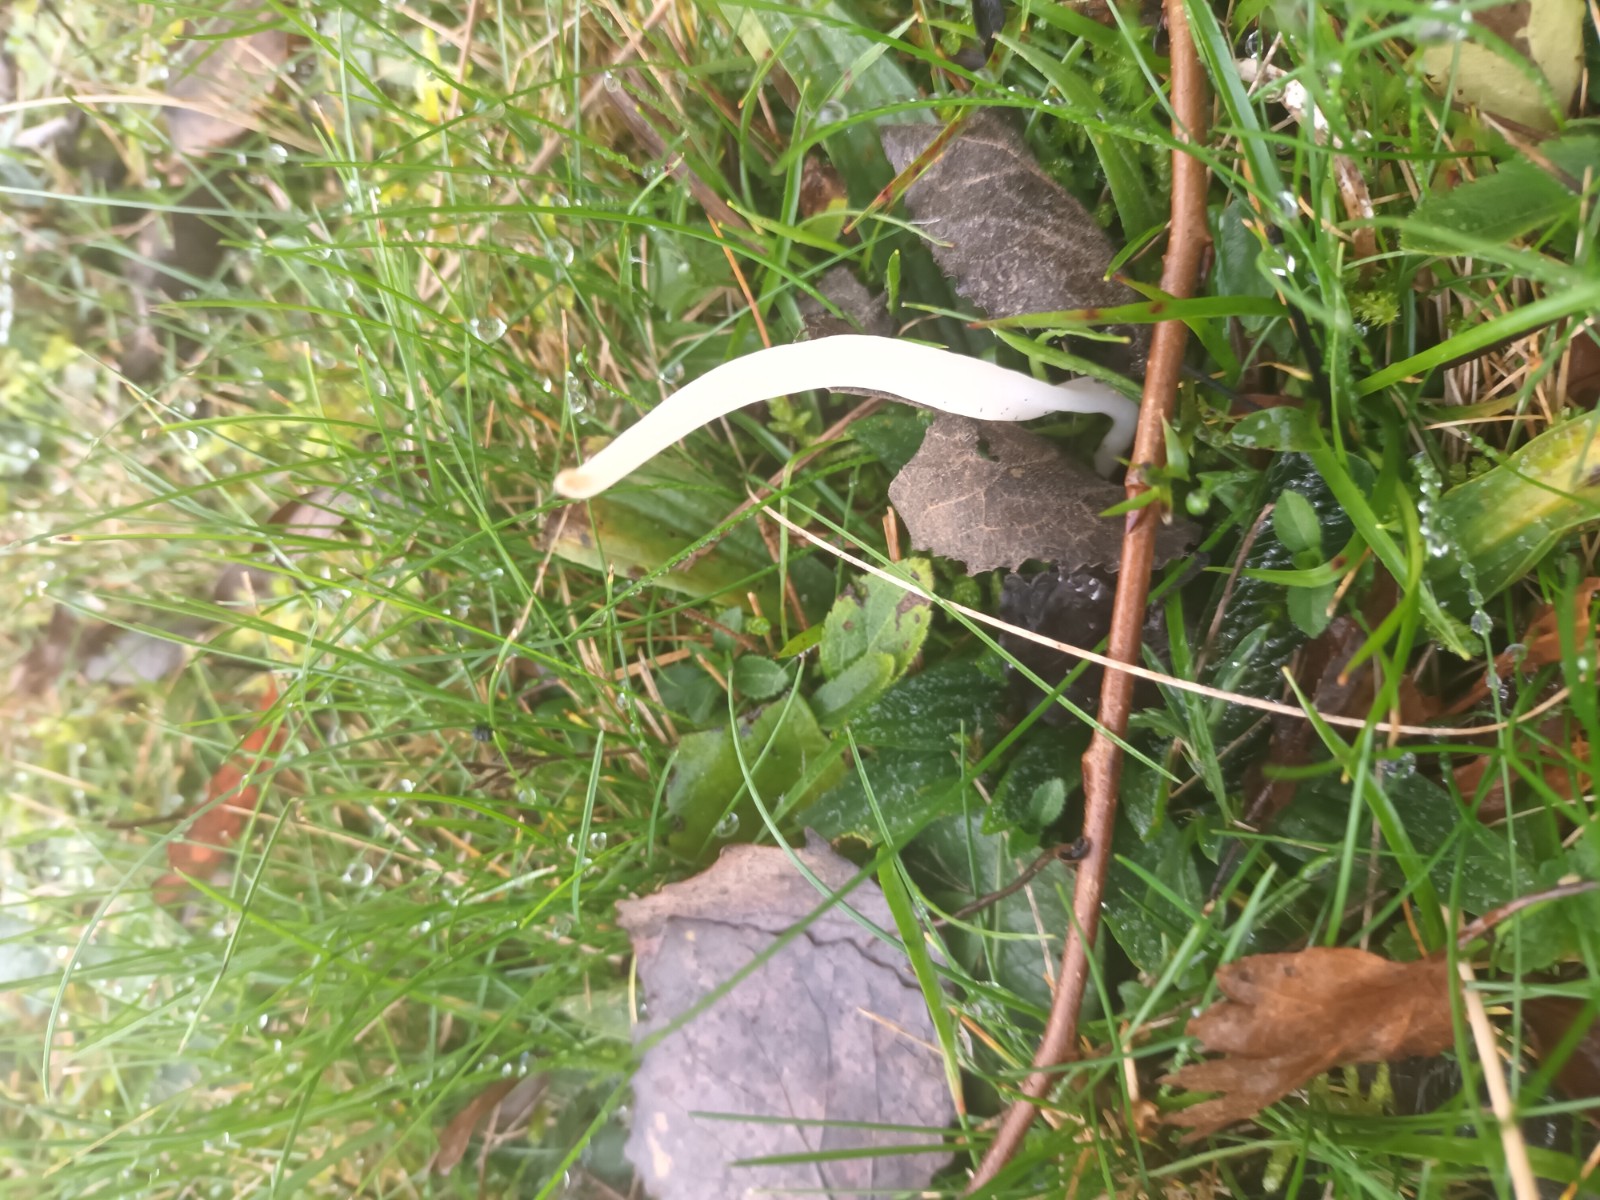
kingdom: Fungi
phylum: Basidiomycota
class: Agaricomycetes
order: Agaricales
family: Clavariaceae
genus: Clavaria
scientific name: Clavaria
